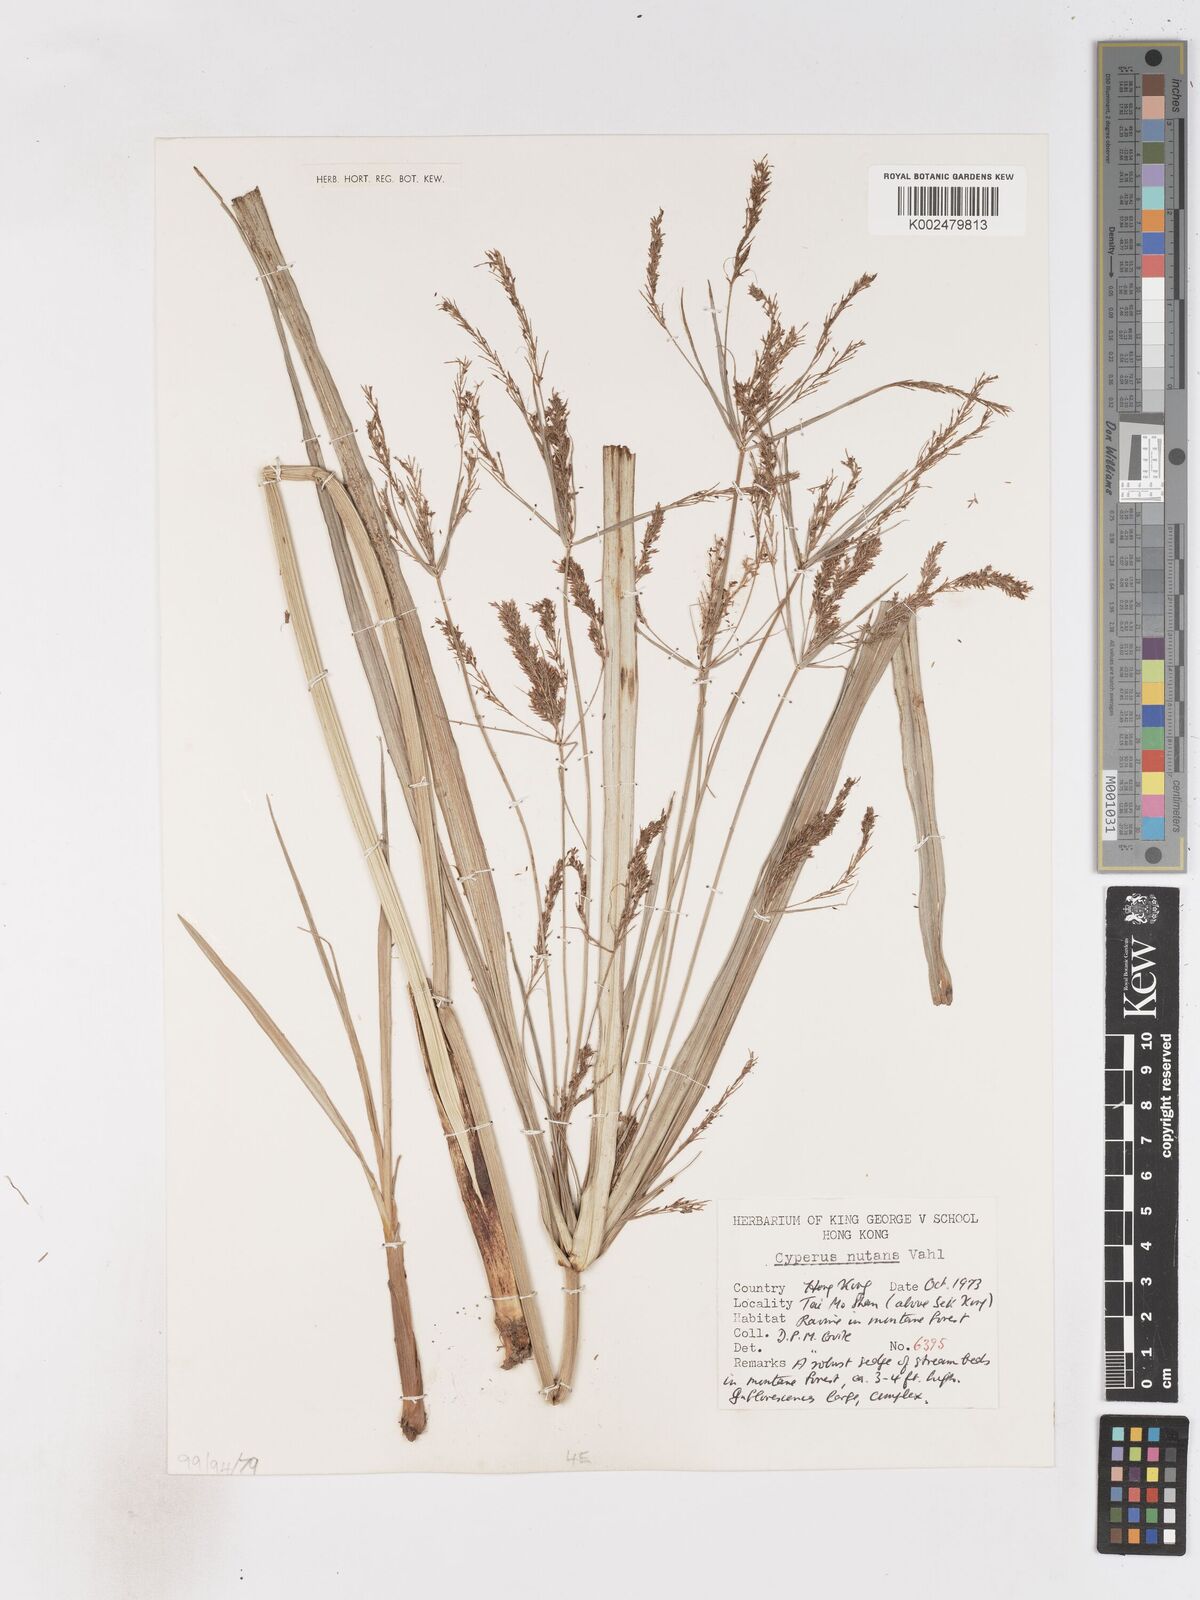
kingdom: Plantae
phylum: Tracheophyta
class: Liliopsida
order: Poales
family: Cyperaceae
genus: Cyperus
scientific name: Cyperus nutans
